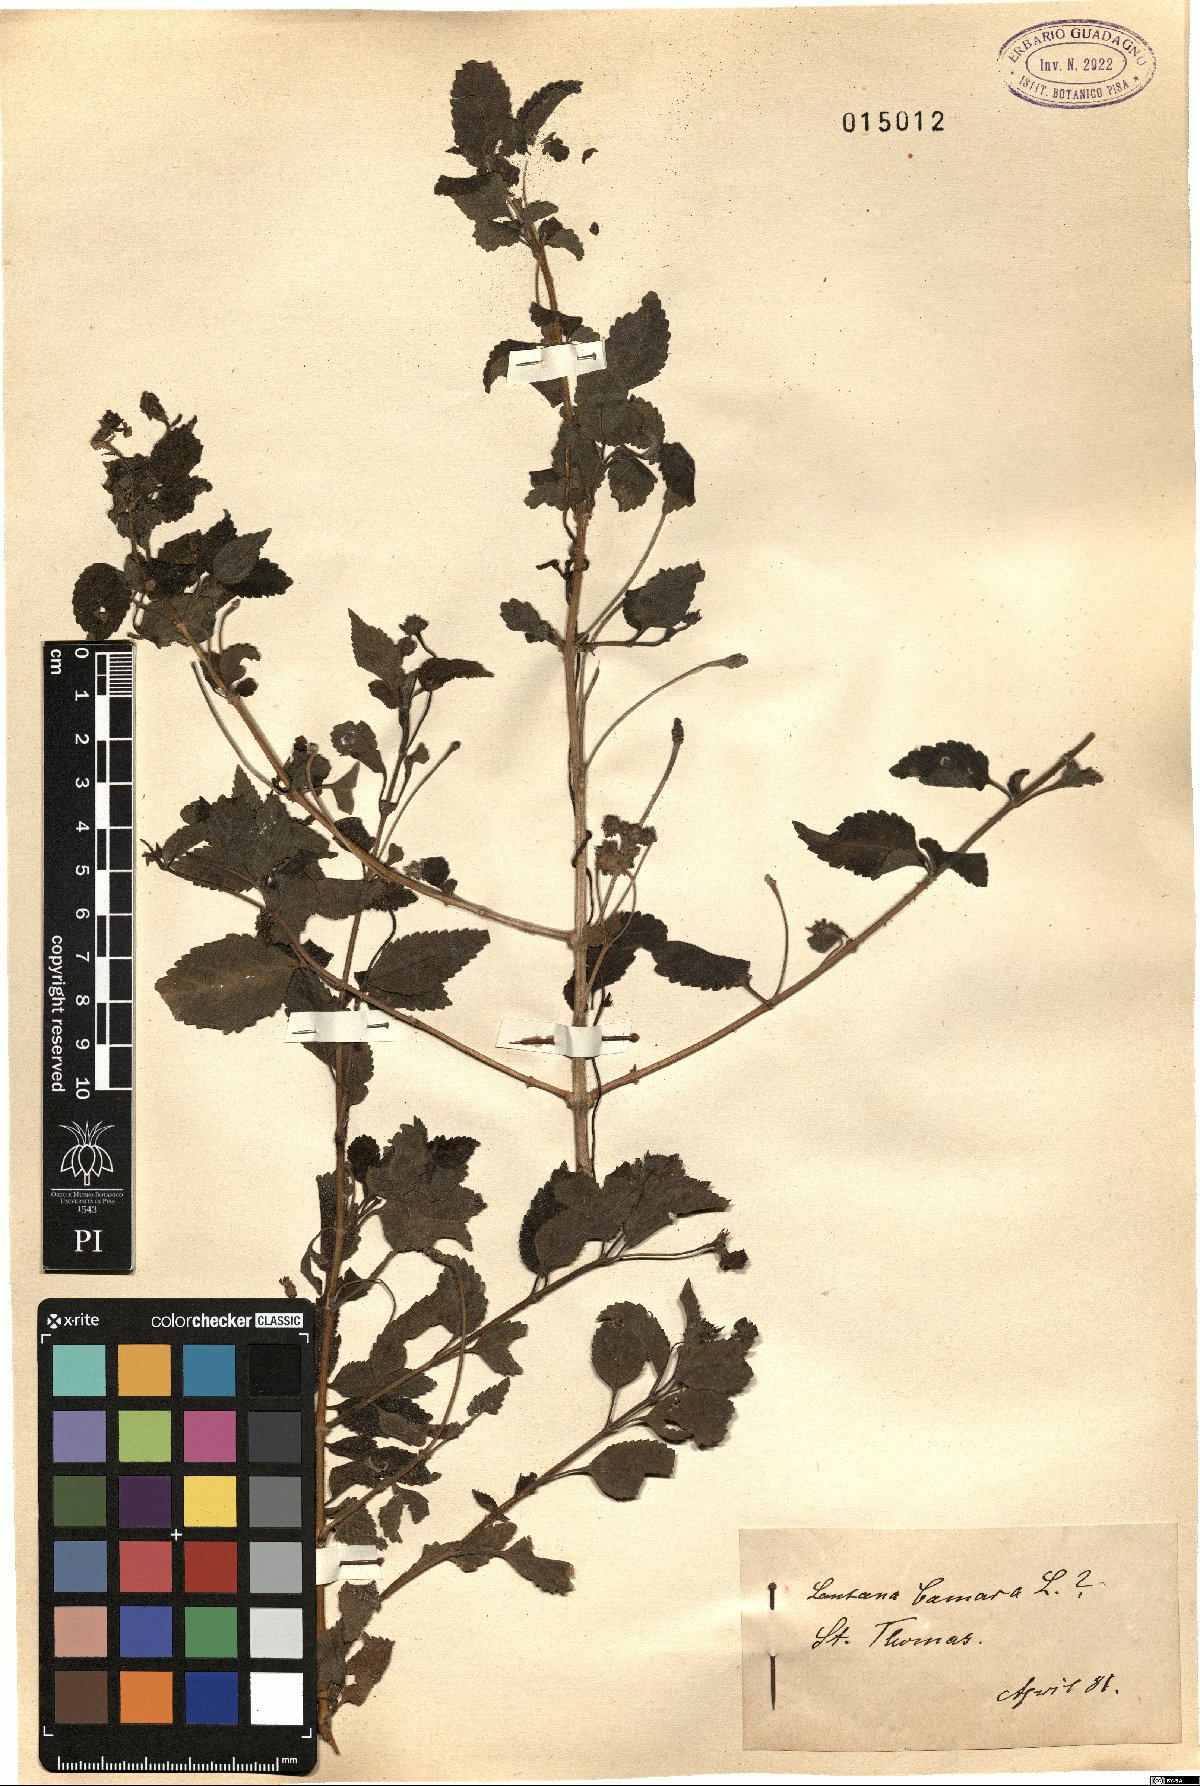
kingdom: Plantae
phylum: Tracheophyta
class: Magnoliopsida
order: Lamiales
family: Verbenaceae
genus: Lantana
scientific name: Lantana camara
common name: Lantana
